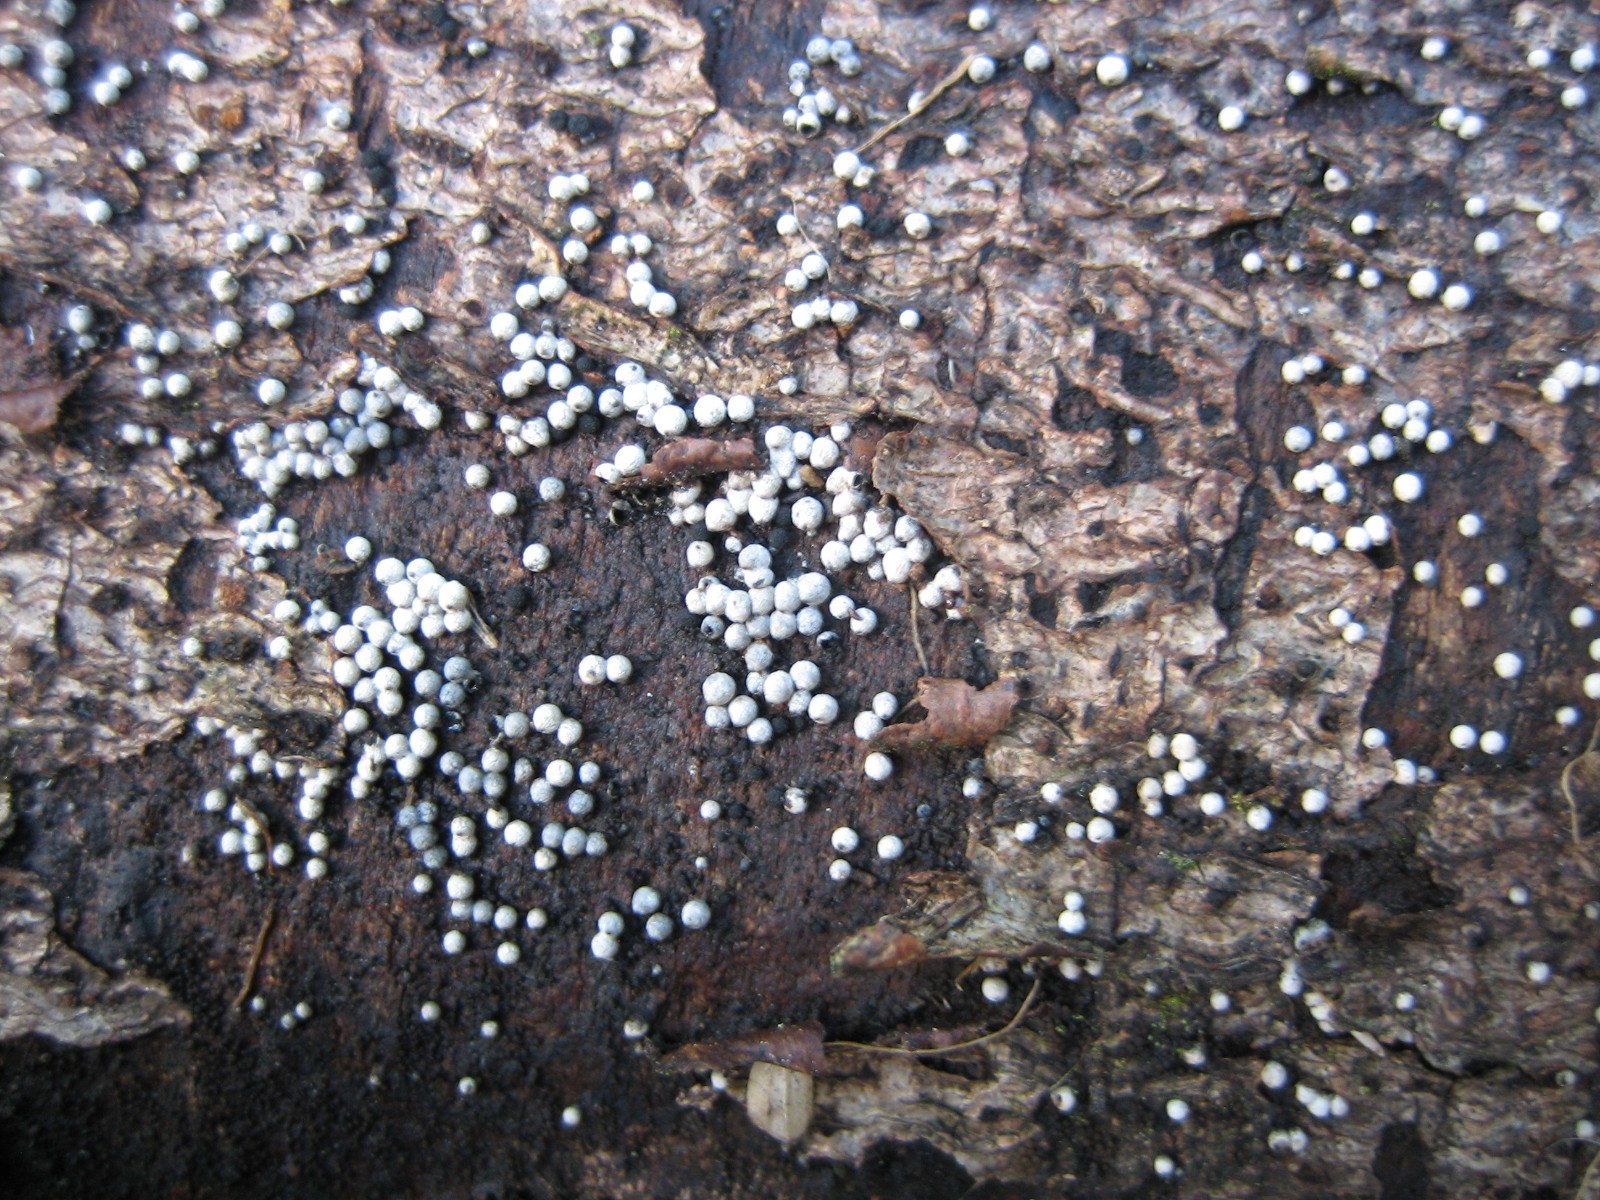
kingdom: Fungi
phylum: Ascomycota
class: Sordariomycetes
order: Sordariales
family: Lasiosphaeriaceae
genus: Lasiosphaeria
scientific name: Lasiosphaeria ovina
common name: fåre-kernesvamp
